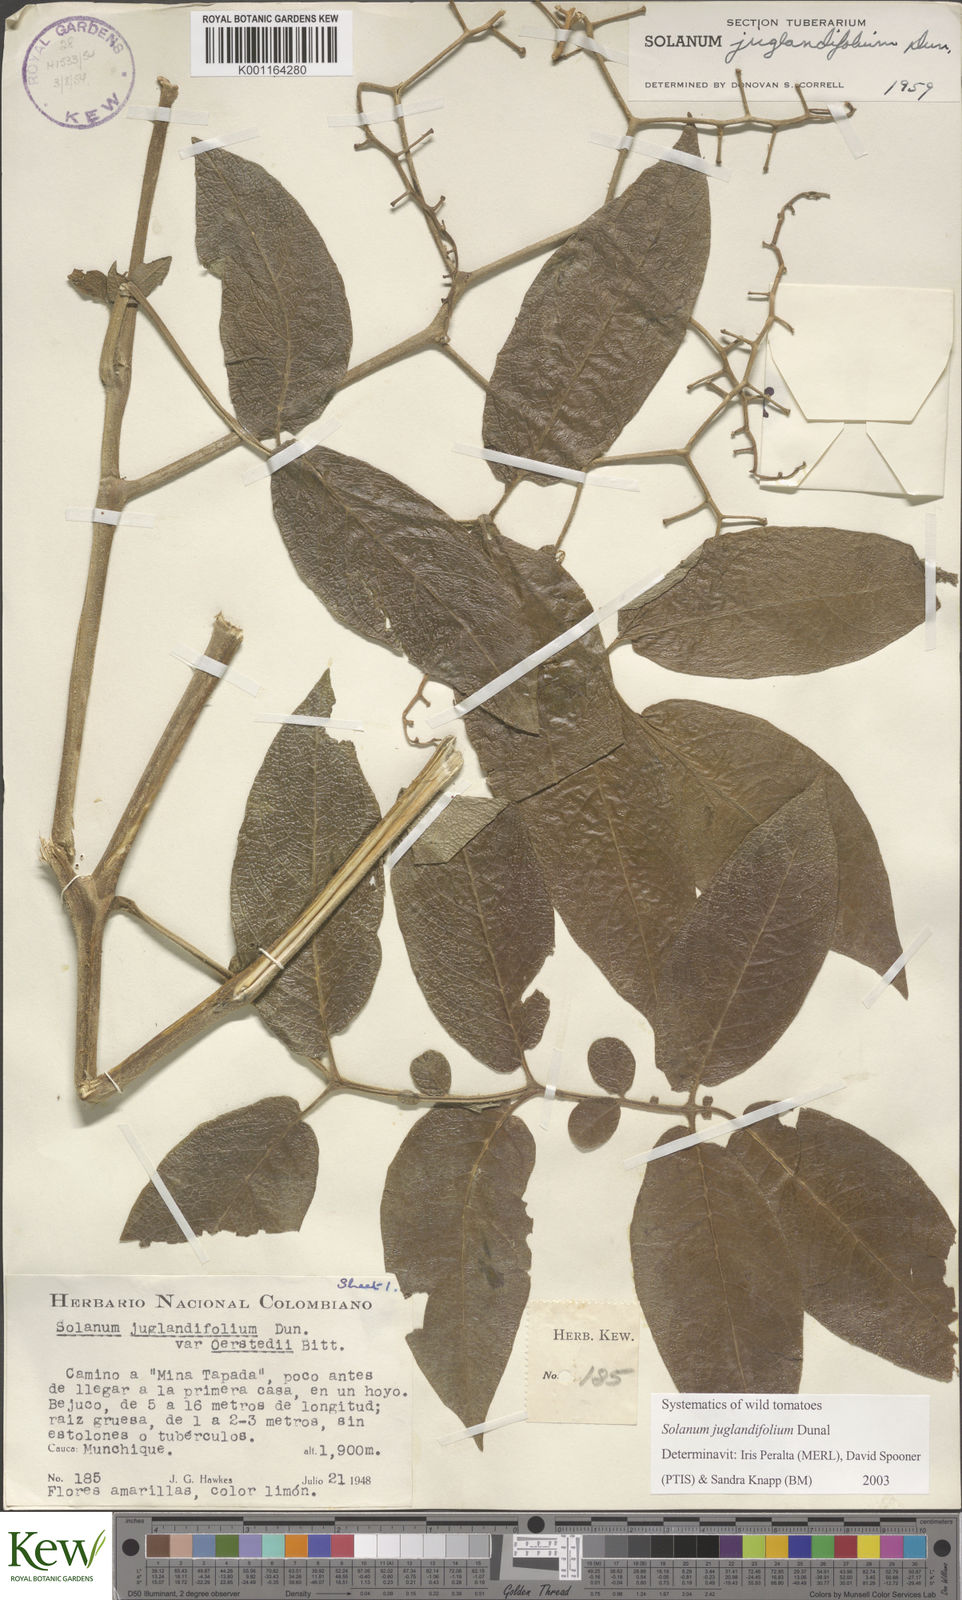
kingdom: Plantae
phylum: Tracheophyta
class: Magnoliopsida
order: Solanales
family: Solanaceae
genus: Solanum
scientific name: Solanum juglandifolium
